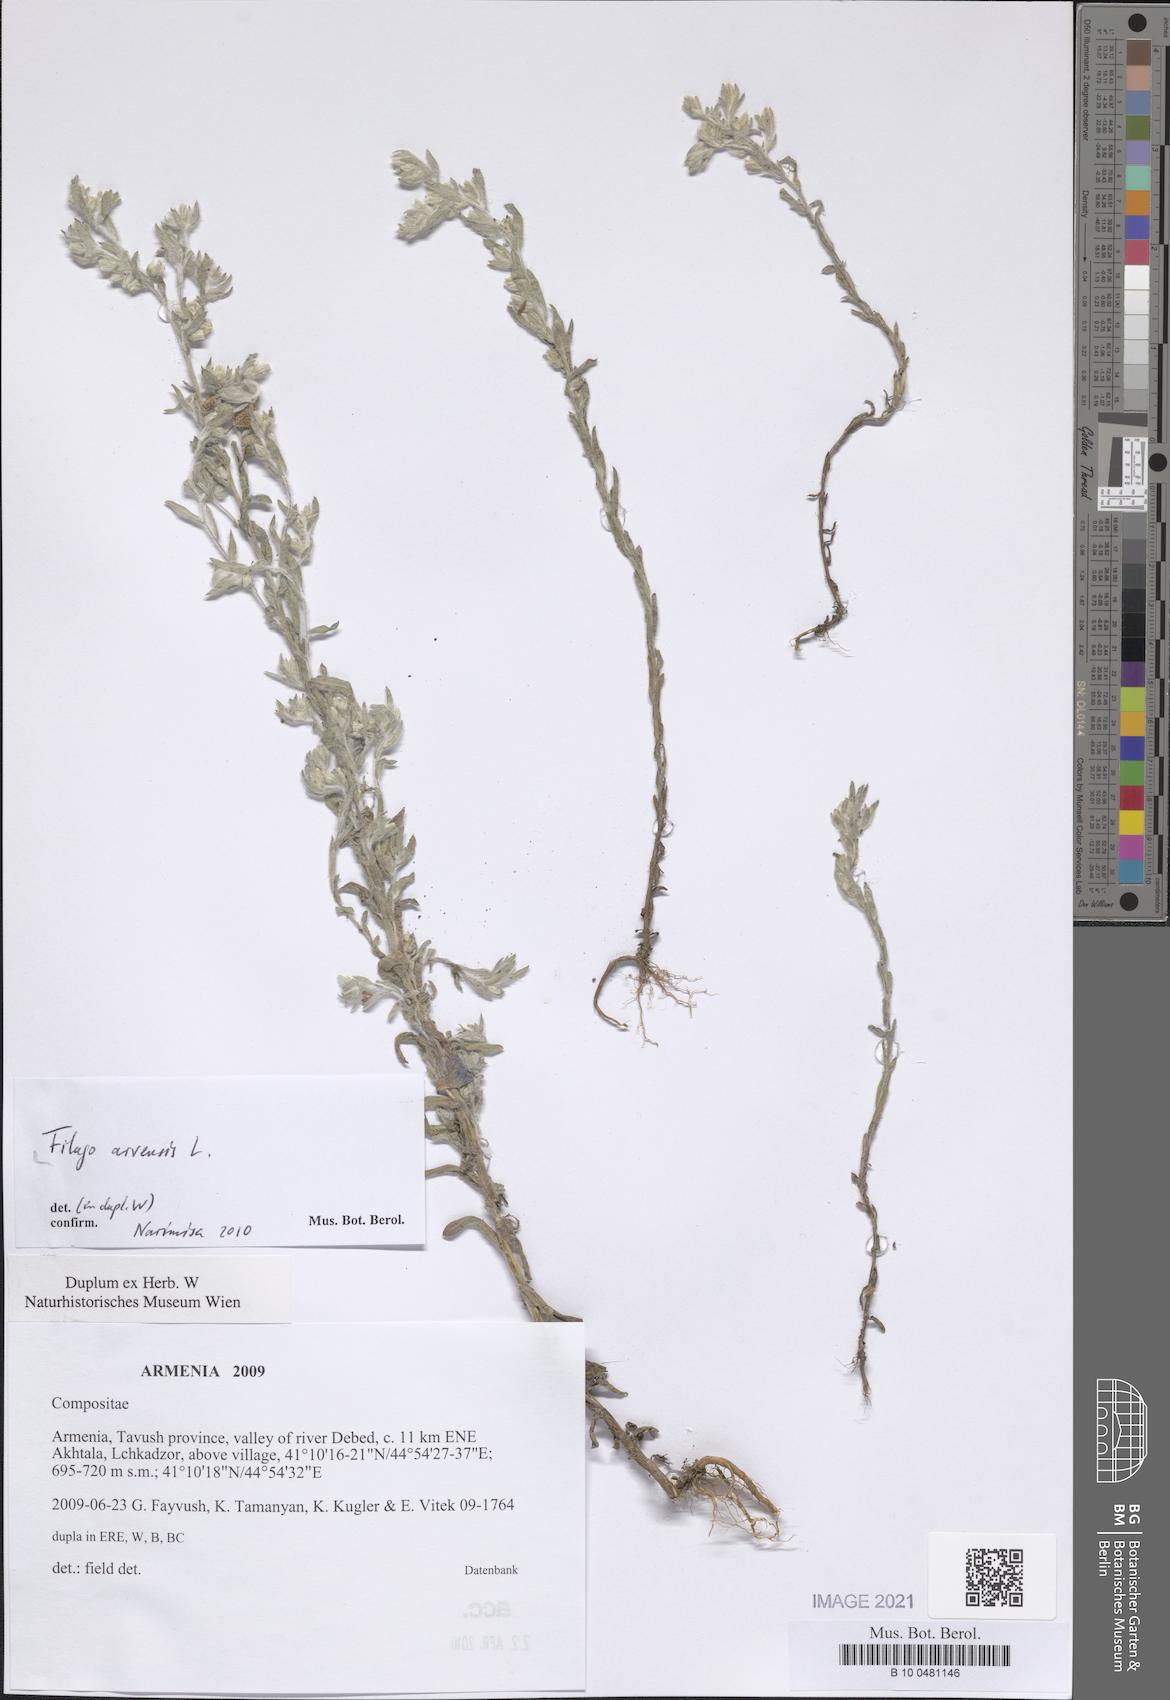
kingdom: Plantae
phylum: Tracheophyta
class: Magnoliopsida
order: Asterales
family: Asteraceae
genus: Filago
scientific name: Filago arvensis
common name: Field cudweed
